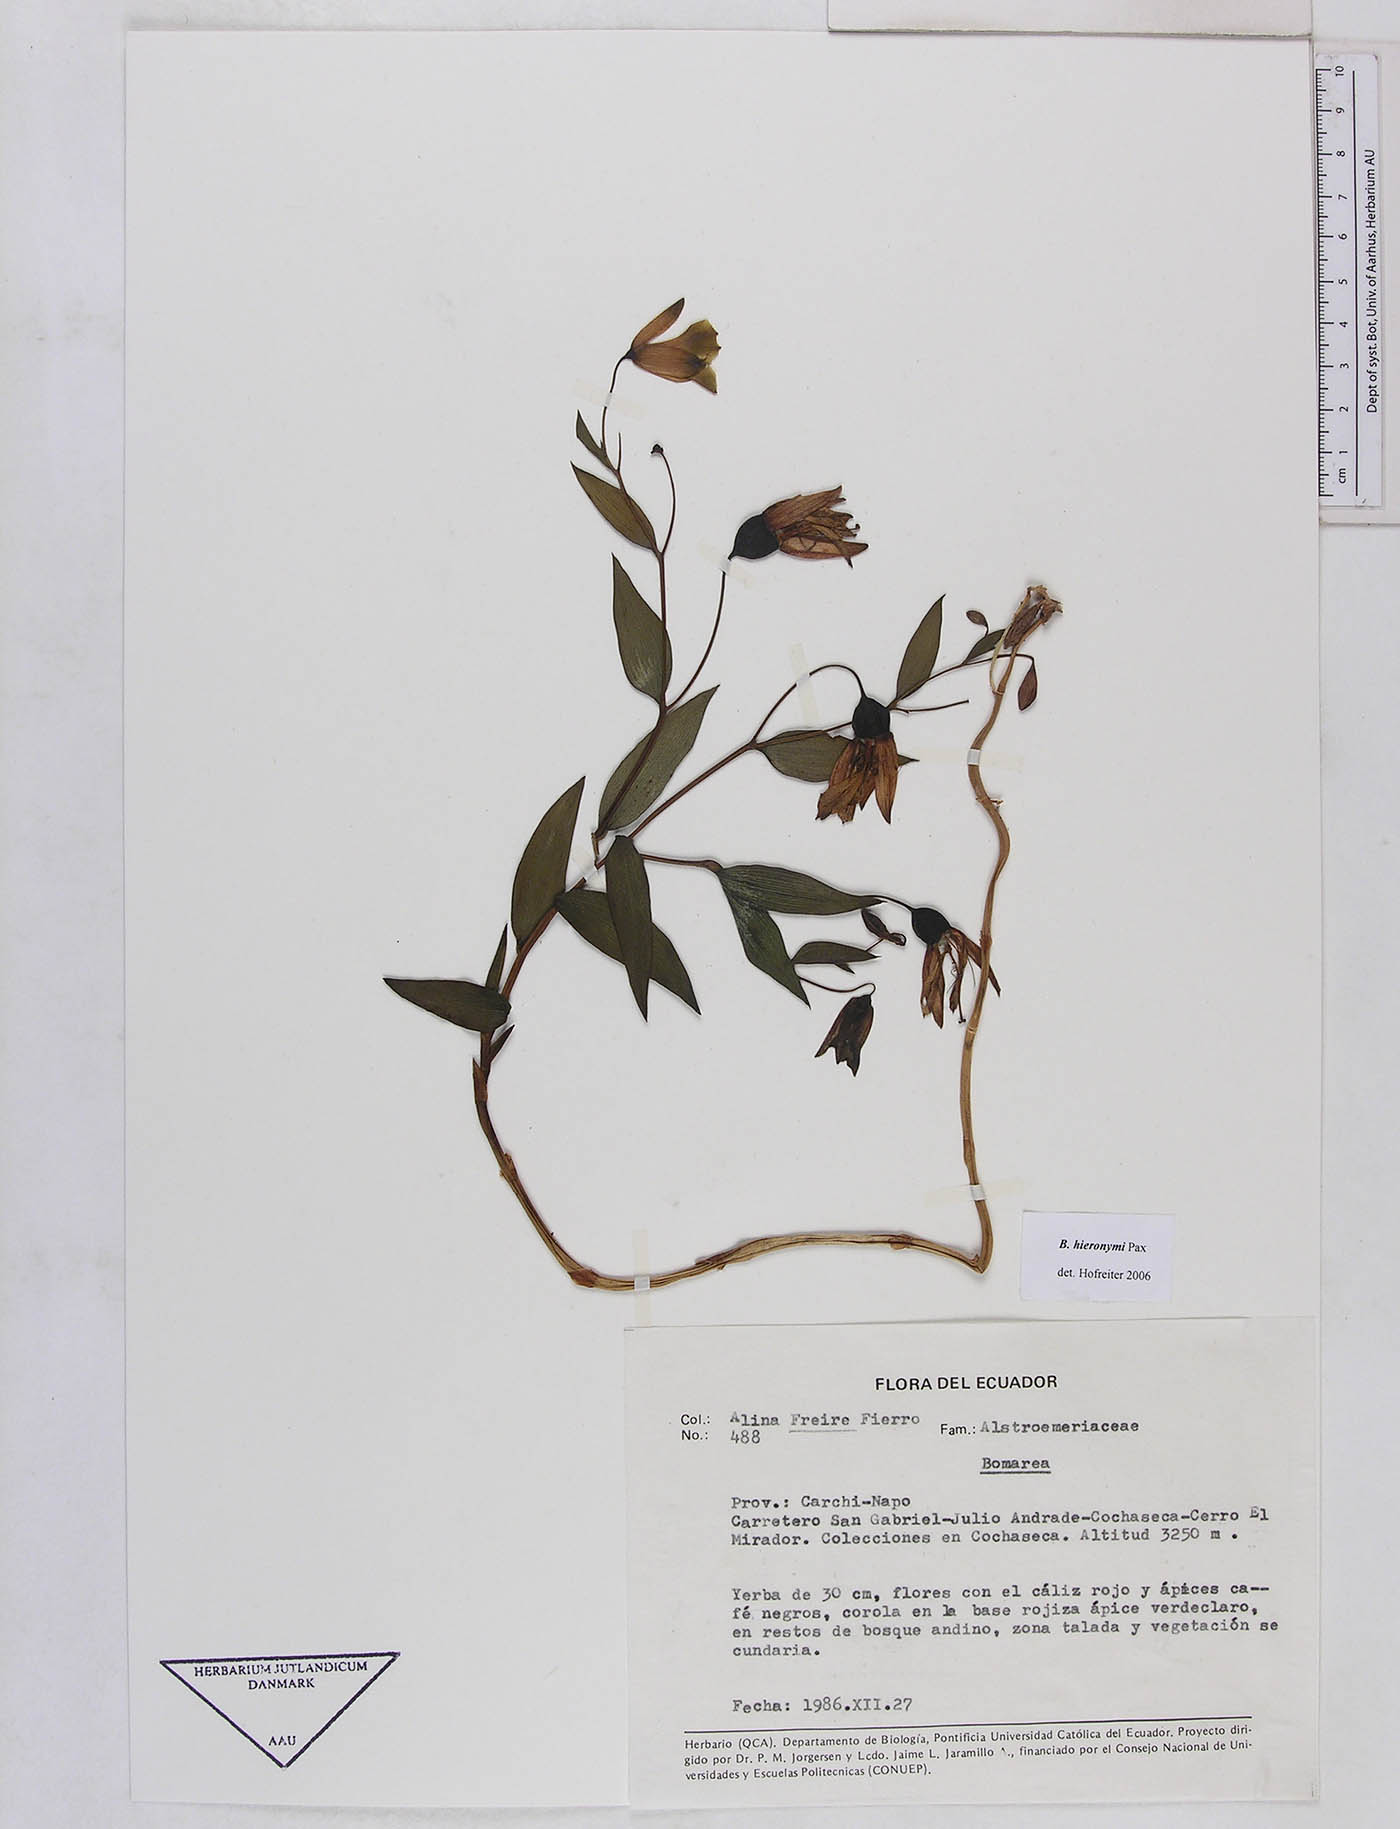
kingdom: Plantae
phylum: Tracheophyta
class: Liliopsida
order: Liliales
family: Alstroemeriaceae
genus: Bomarea
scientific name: Bomarea hieronymi
